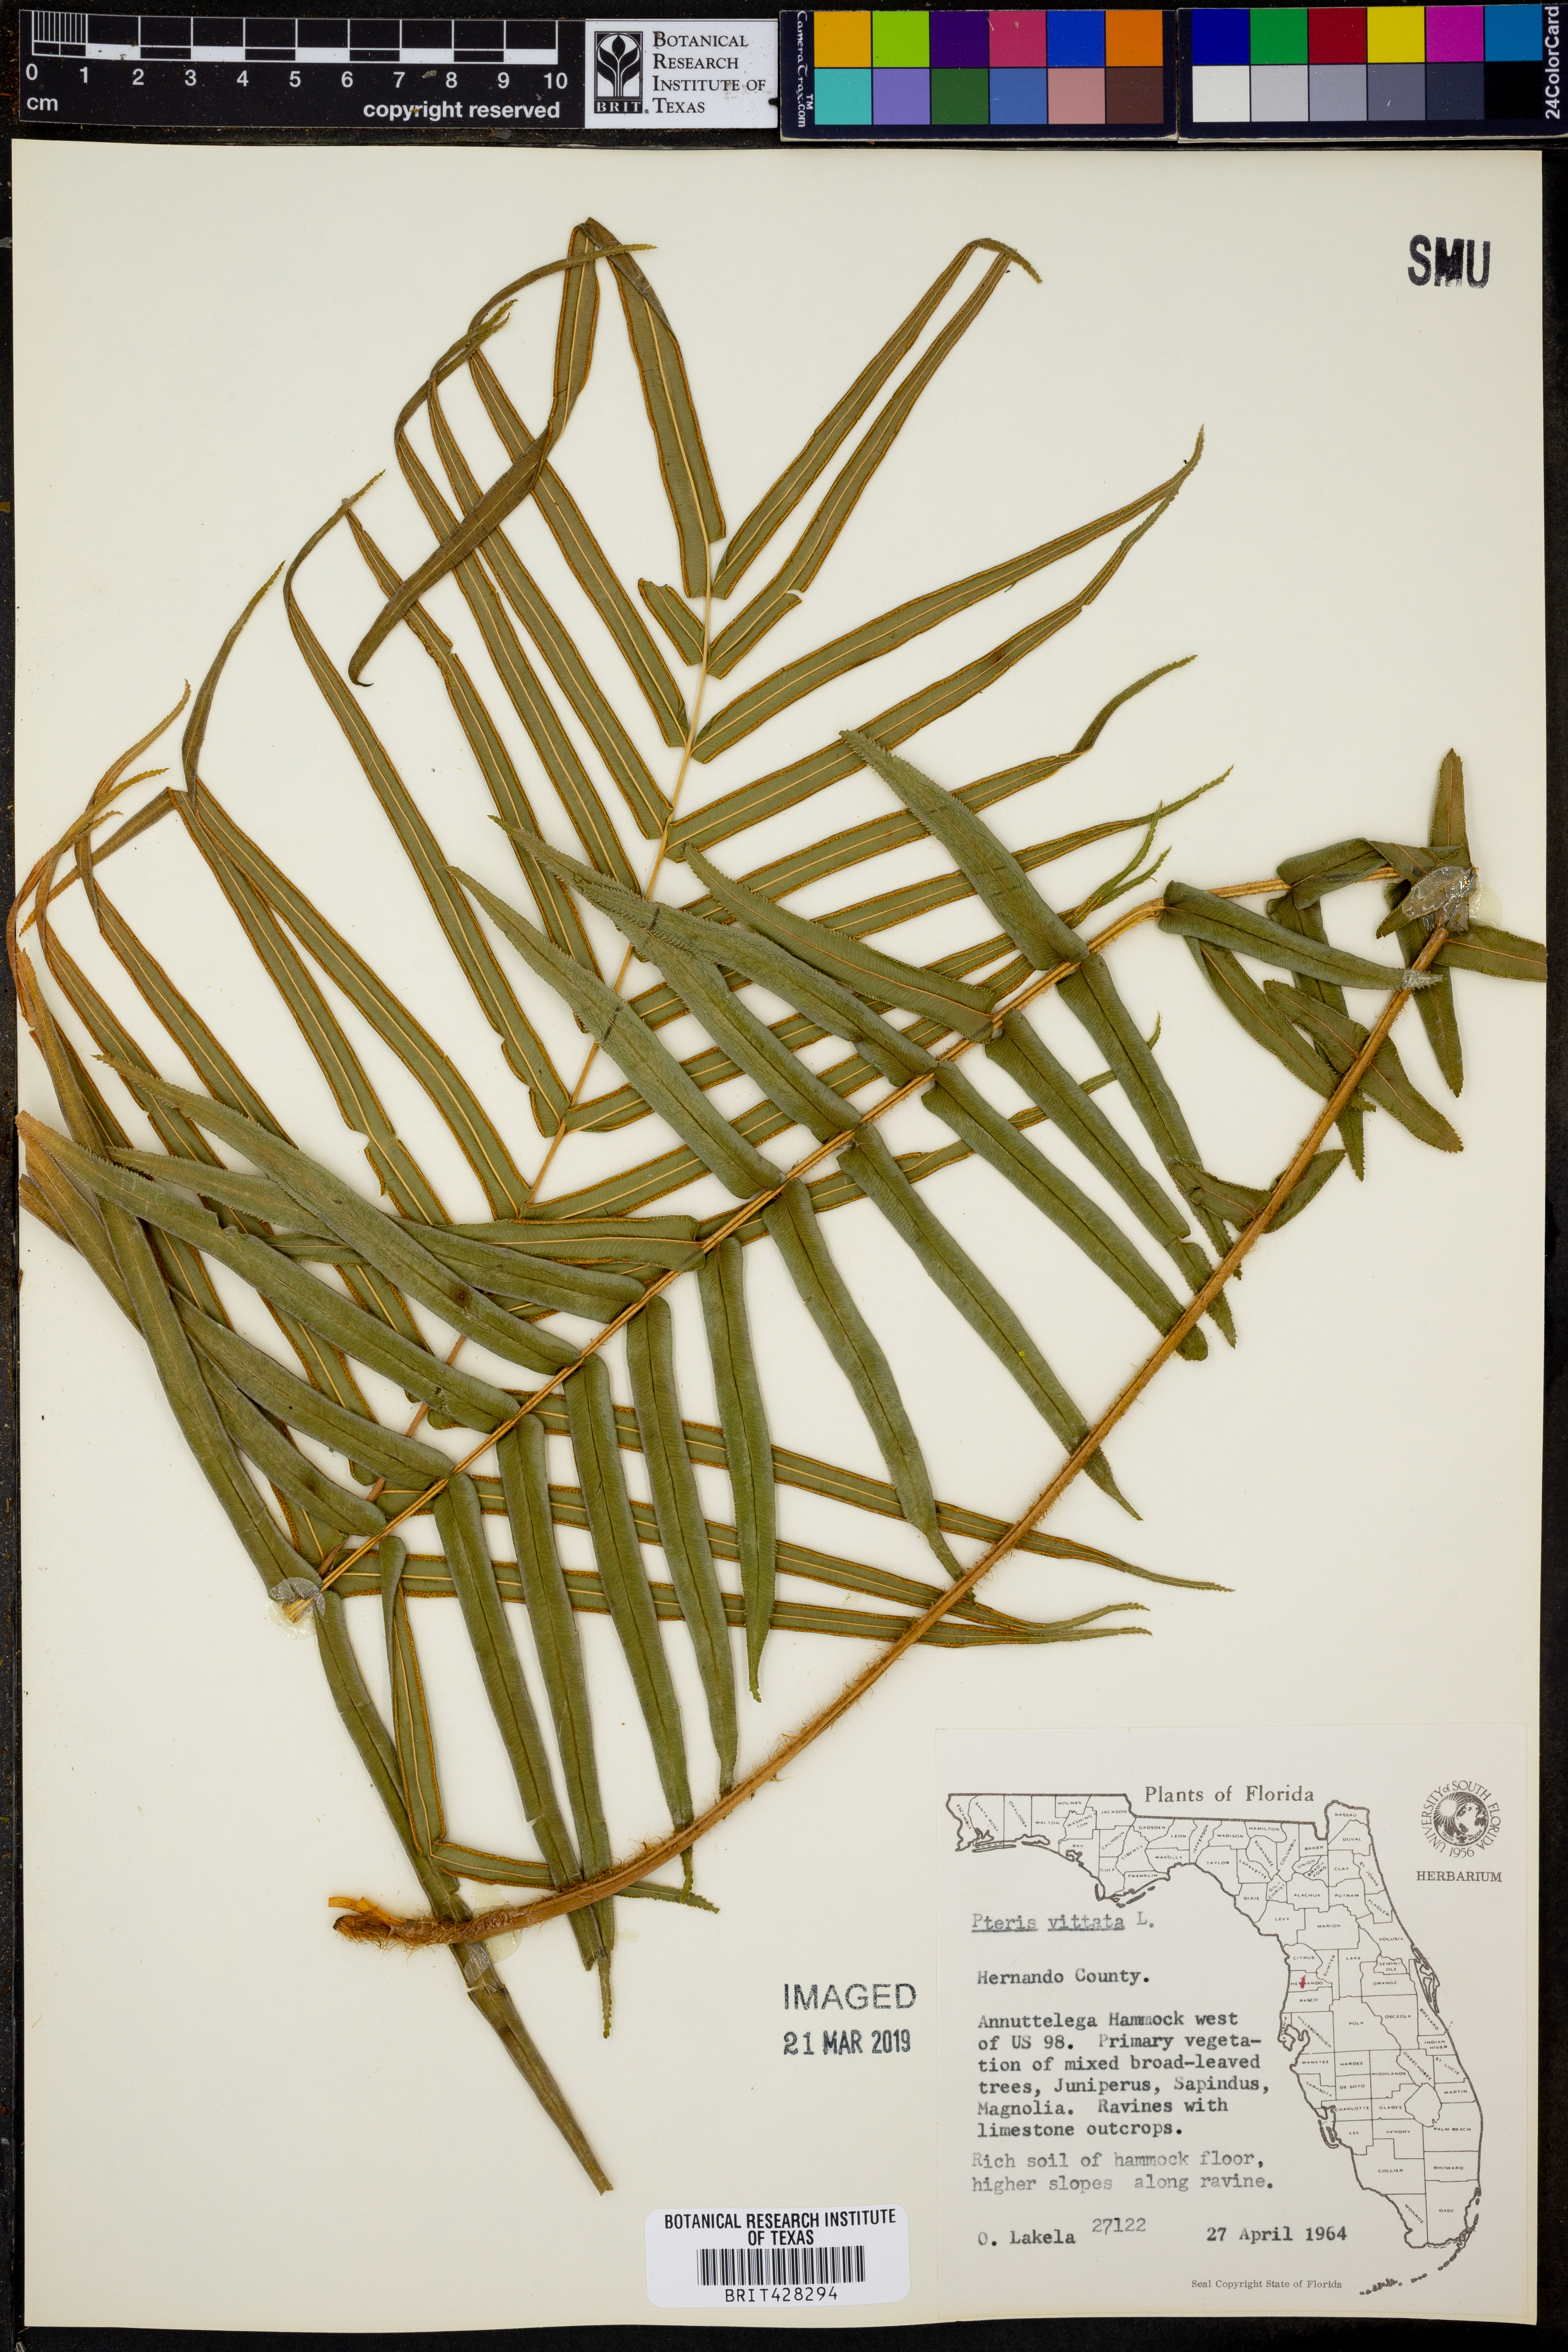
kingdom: Plantae
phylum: Tracheophyta
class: Polypodiopsida
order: Polypodiales
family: Pteridaceae
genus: Pteris
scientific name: Pteris vittata
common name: Ladder brake
